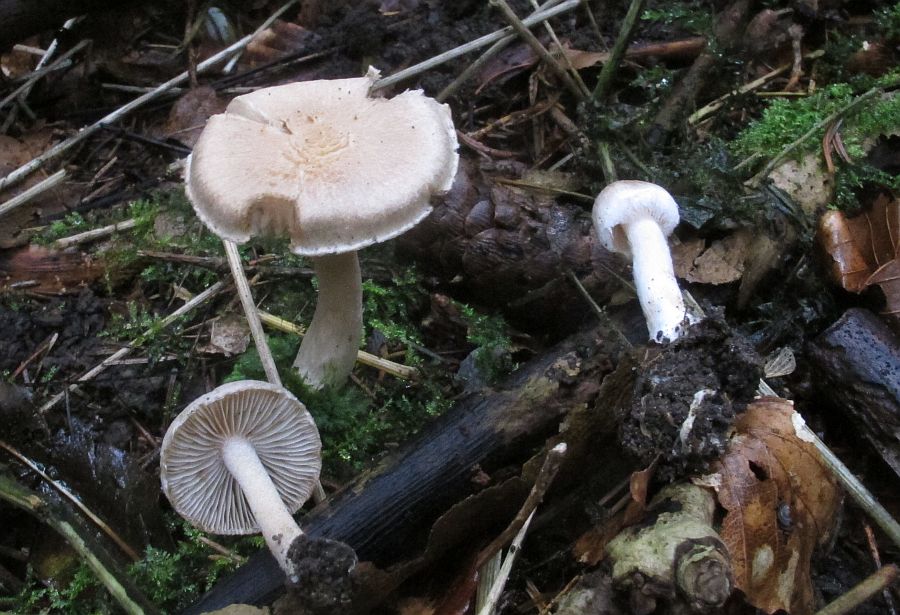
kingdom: Fungi
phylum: Basidiomycota
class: Agaricomycetes
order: Agaricales
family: Inocybaceae
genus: Inocybe
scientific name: Inocybe sindonia
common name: bleg trævlhat
